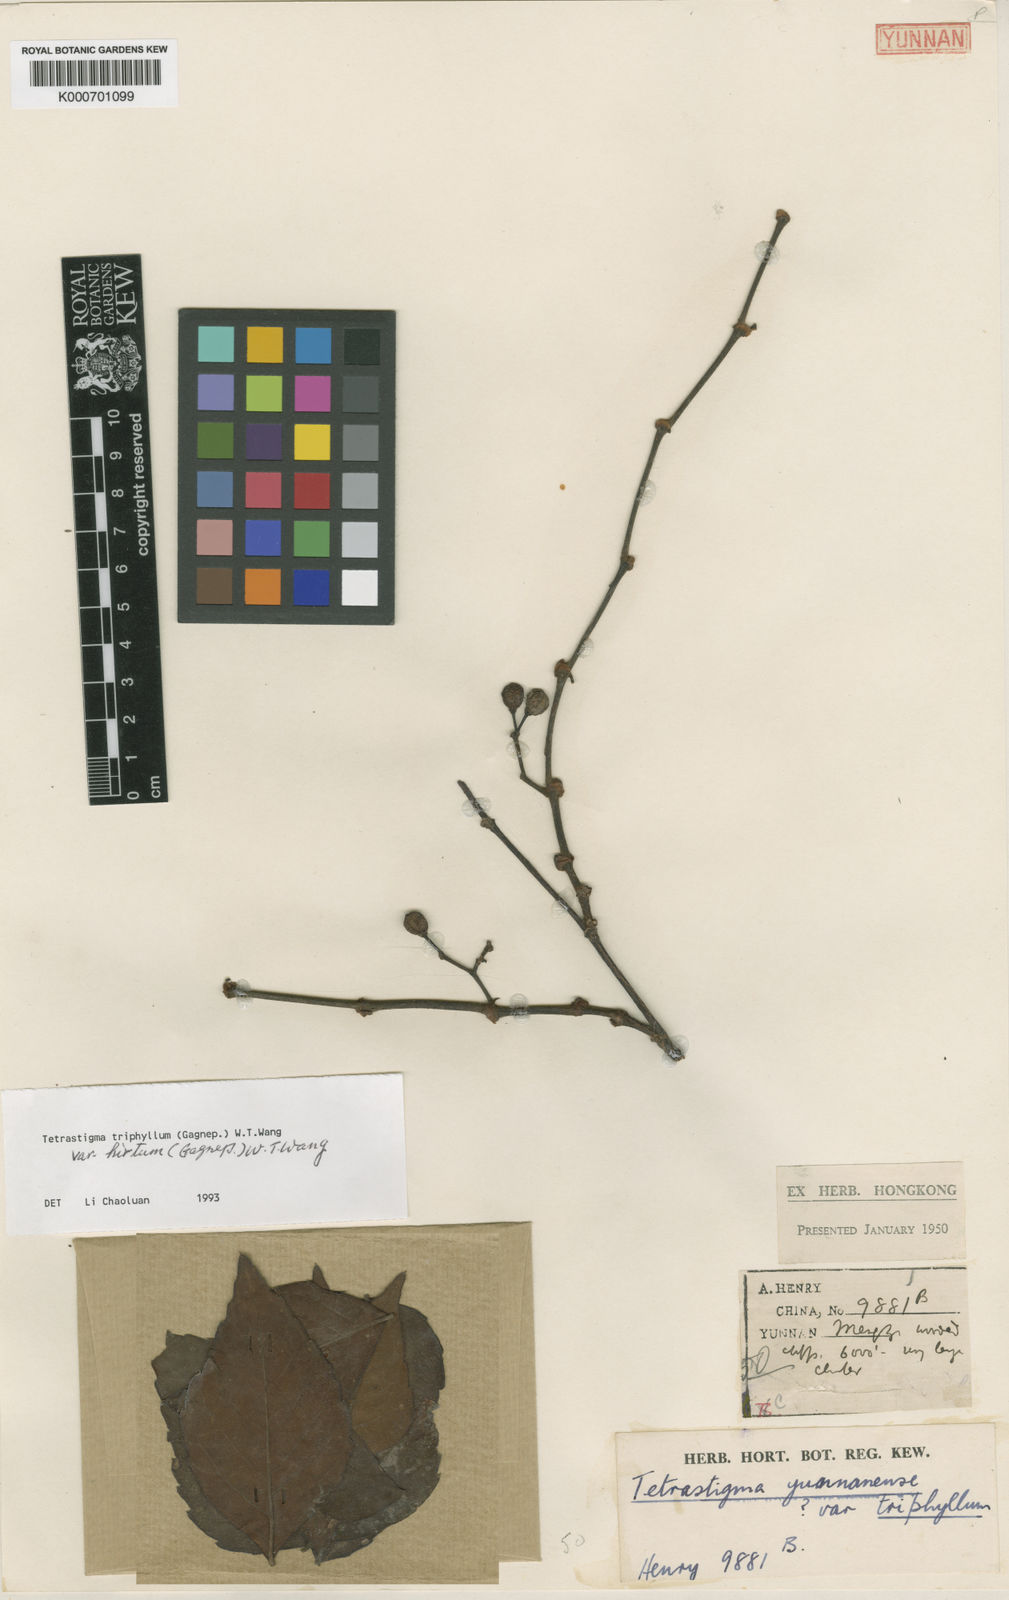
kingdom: Plantae
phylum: Tracheophyta
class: Magnoliopsida
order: Vitales
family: Vitaceae
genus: Tetrastigma
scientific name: Tetrastigma yunnanense
